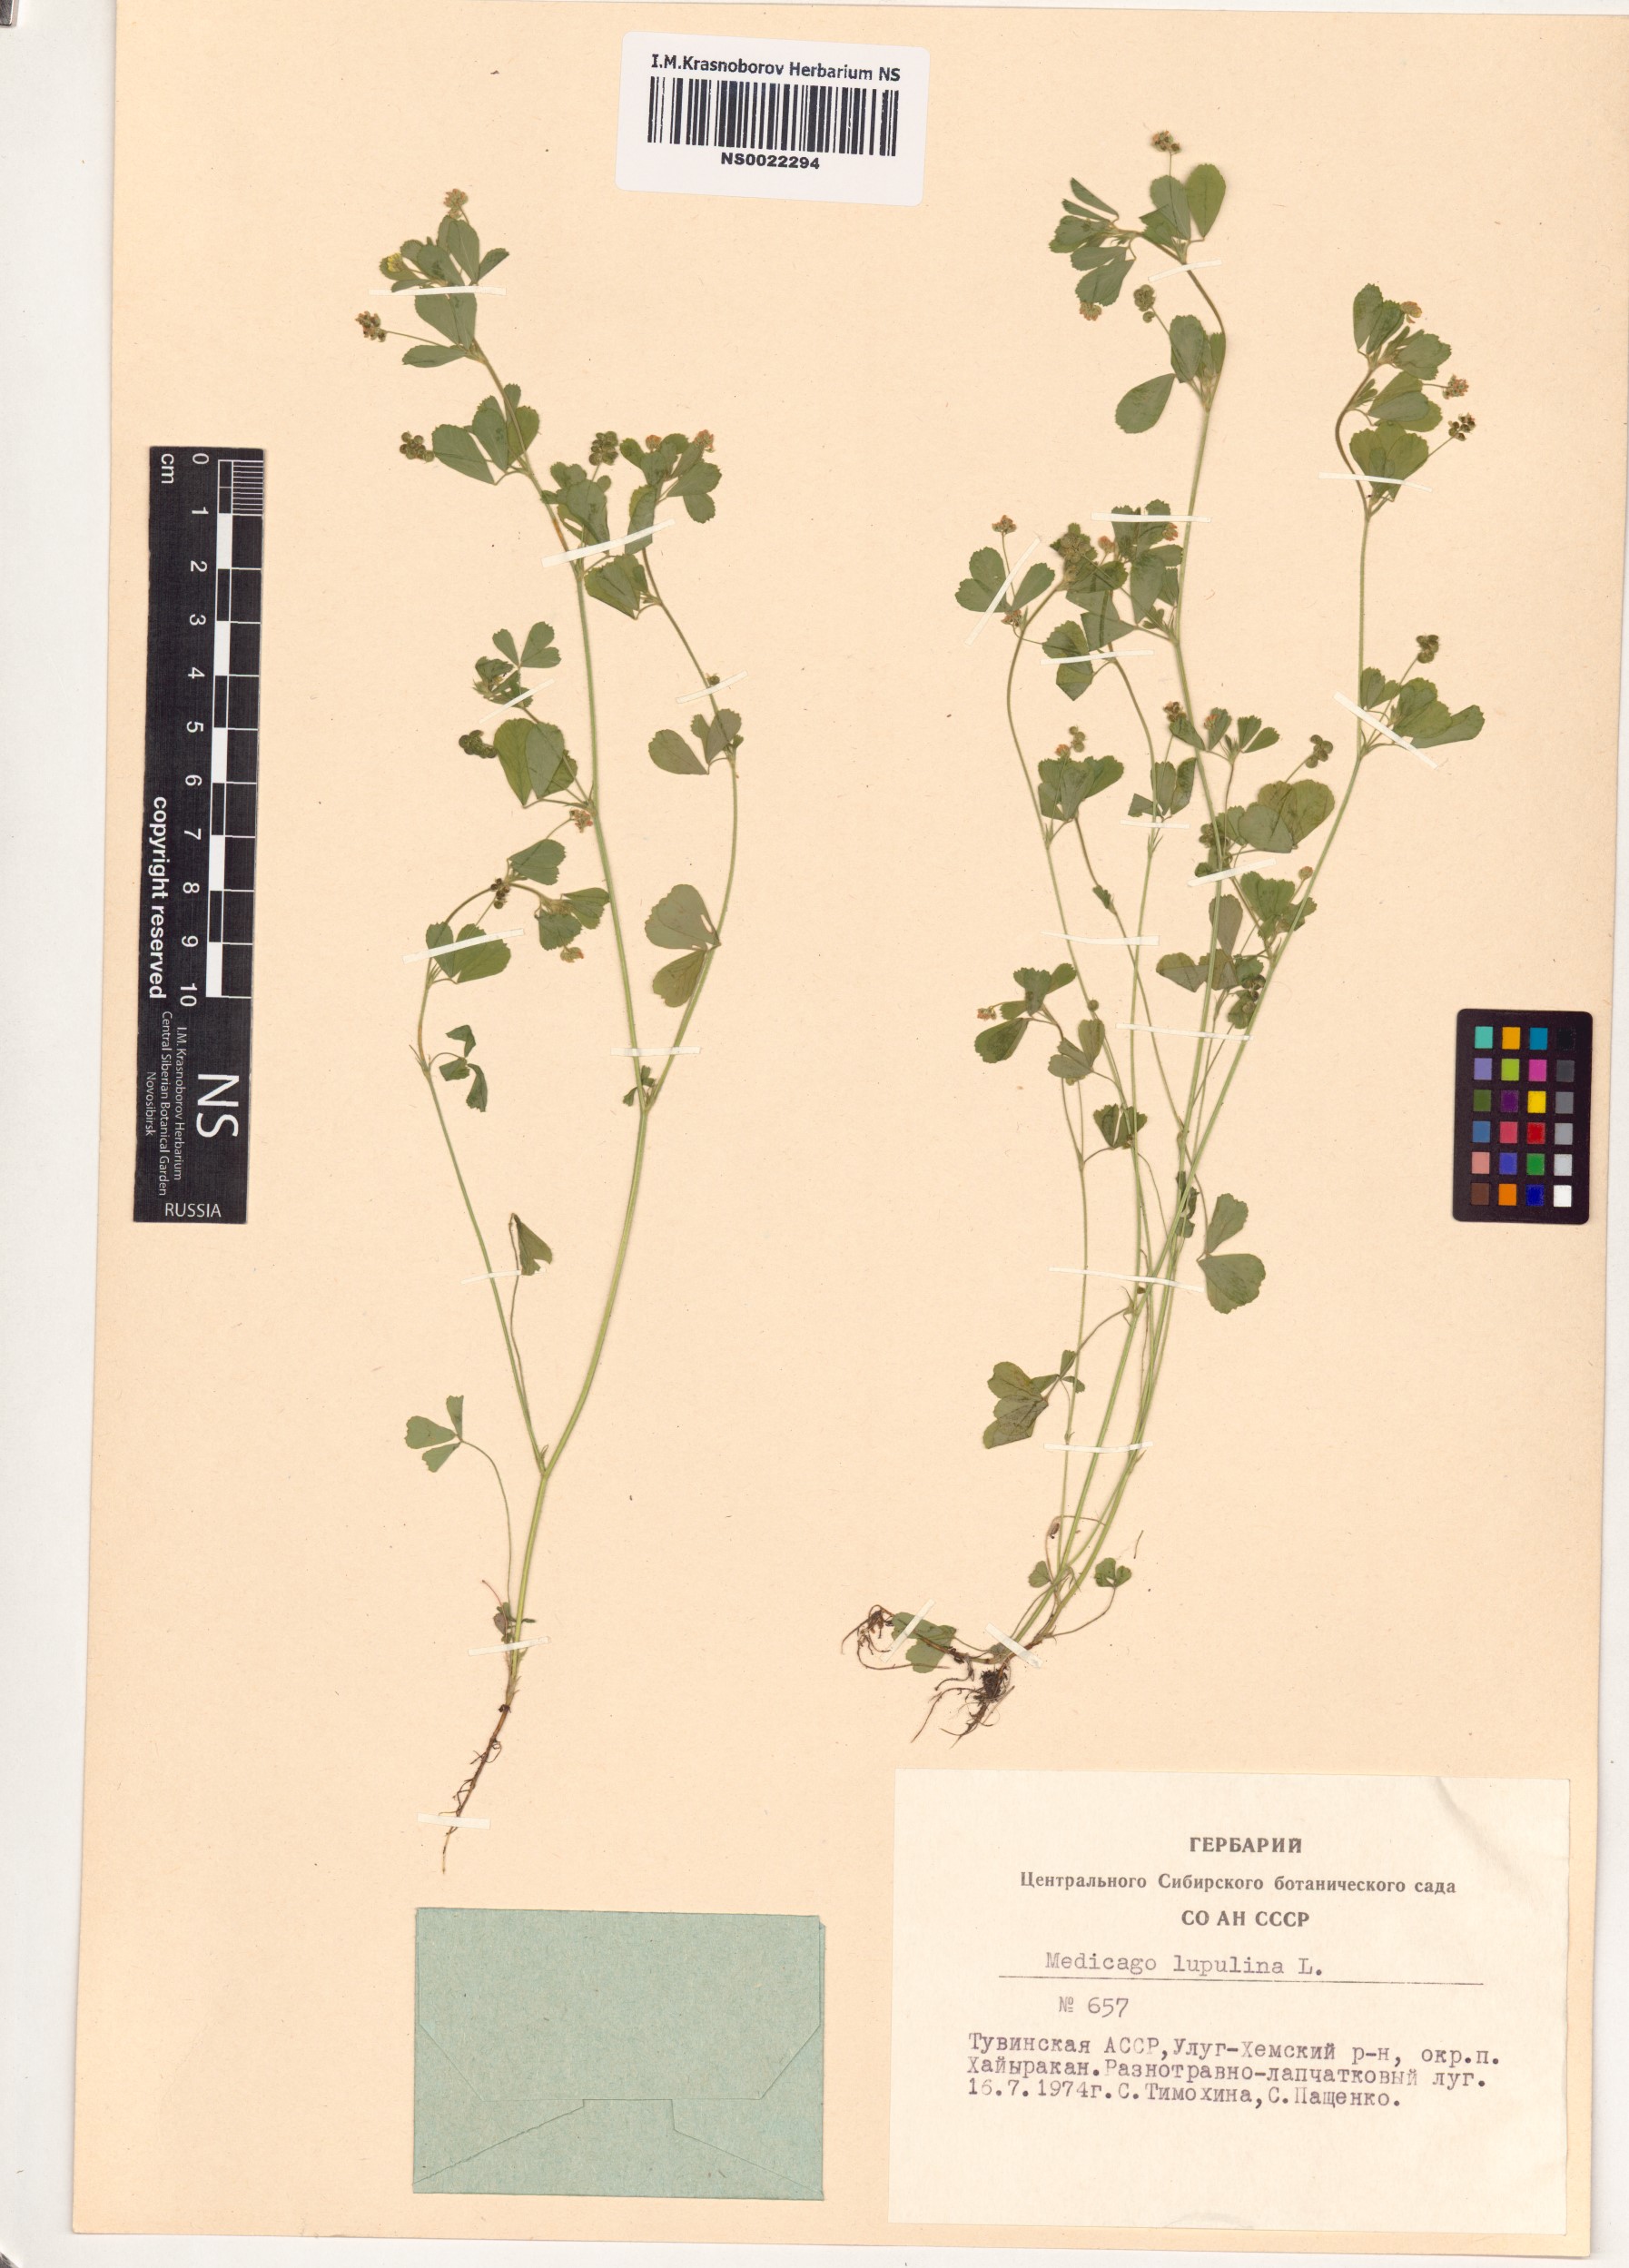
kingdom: Plantae
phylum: Tracheophyta
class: Magnoliopsida
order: Fabales
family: Fabaceae
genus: Medicago
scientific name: Medicago lupulina
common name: Black medick
